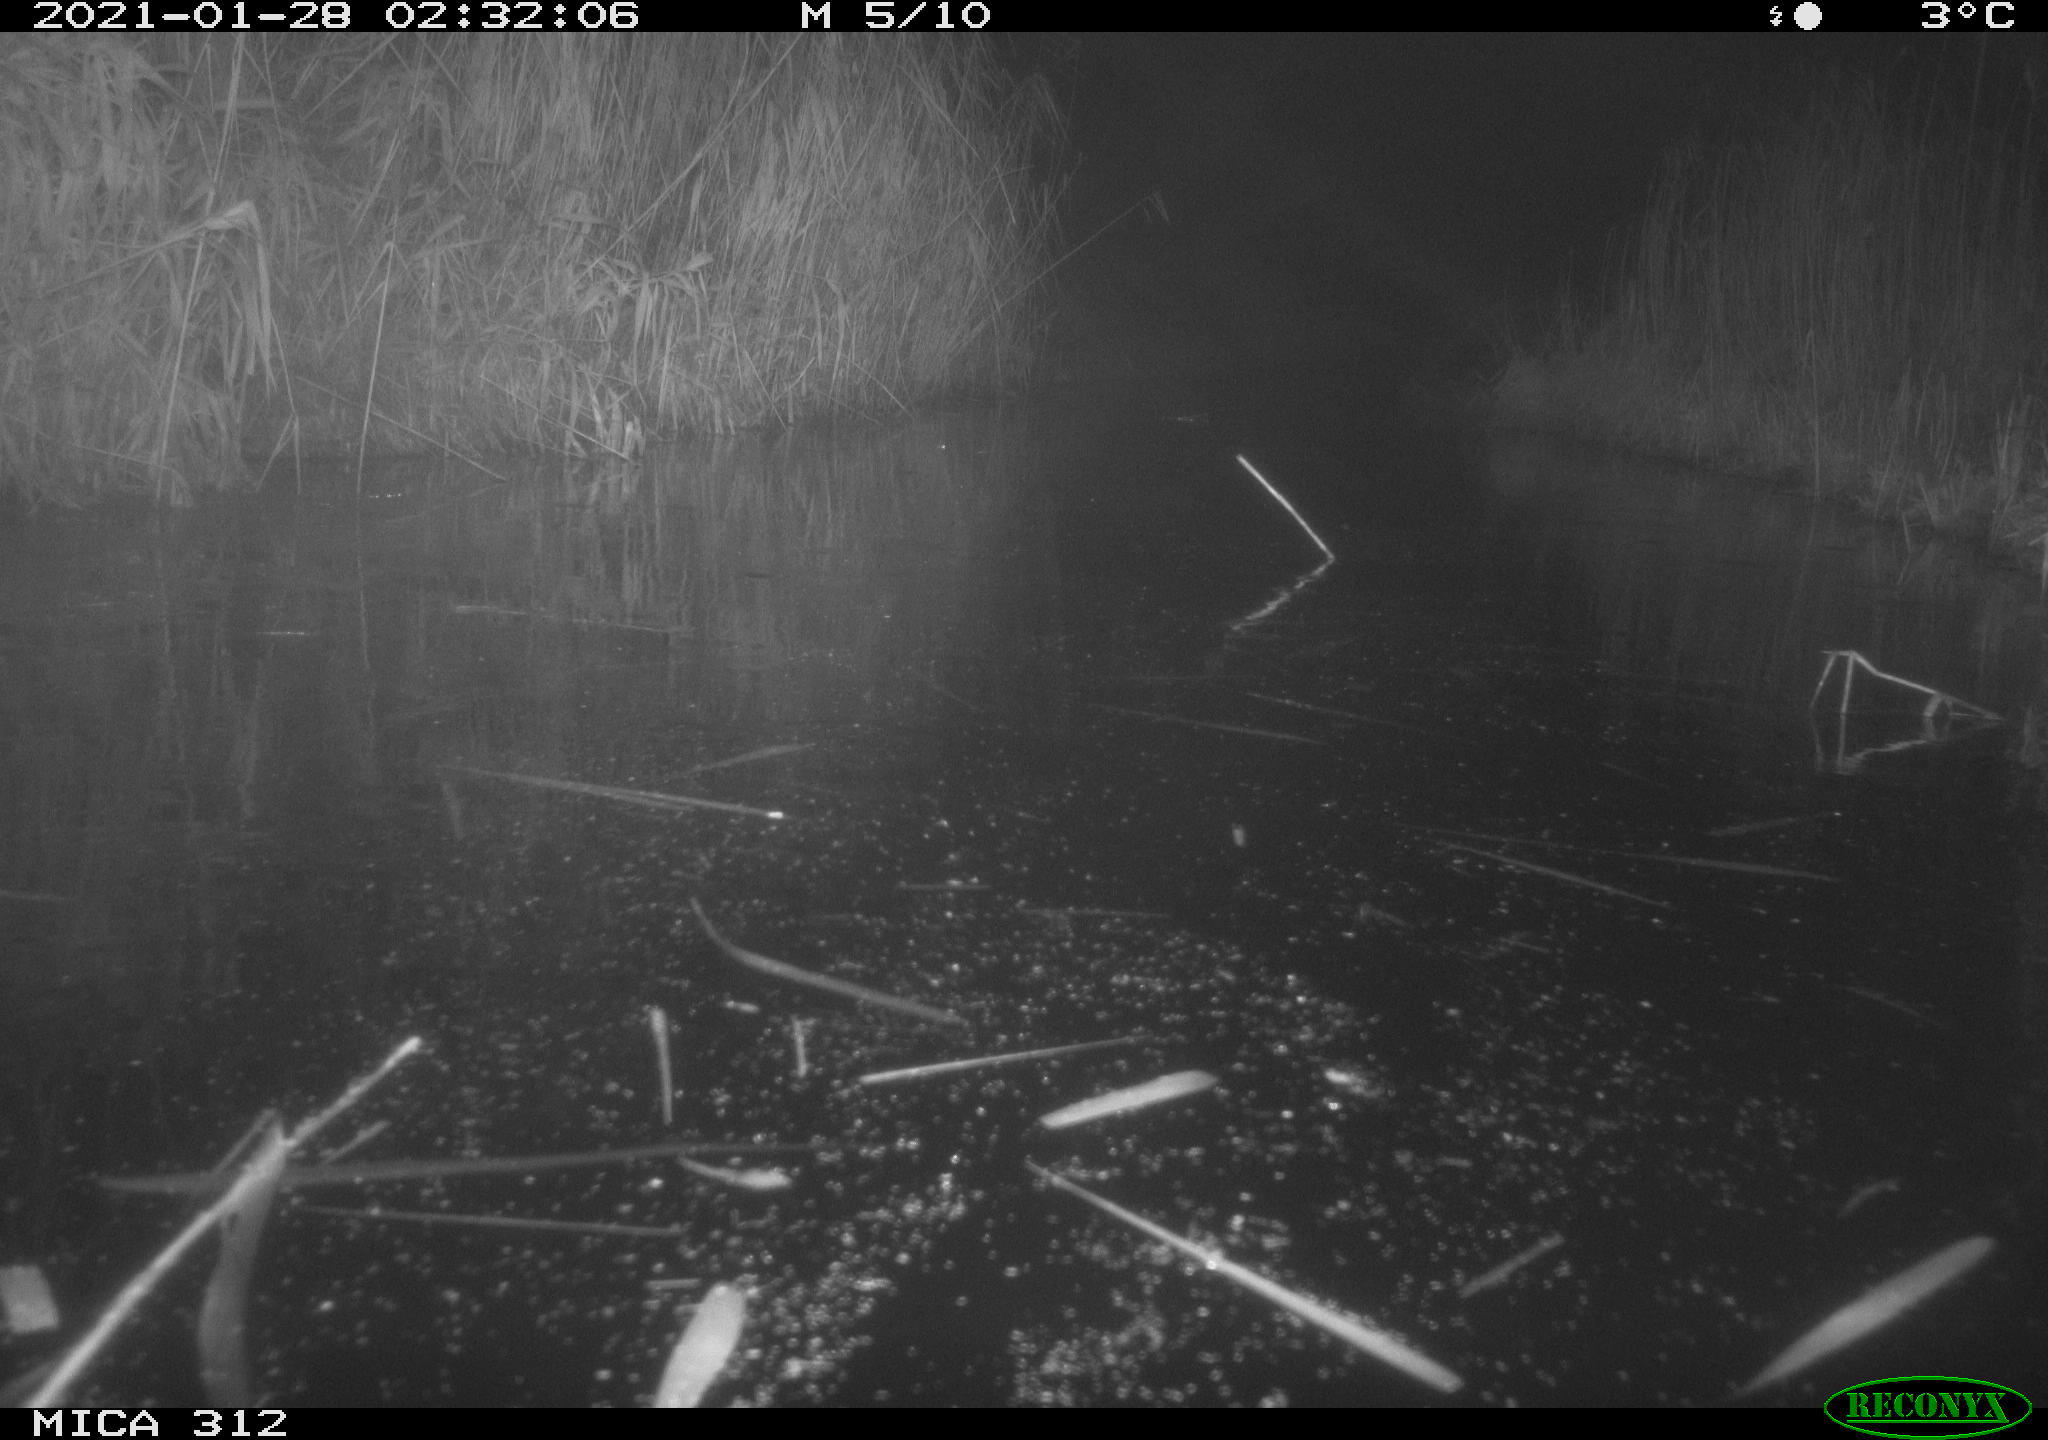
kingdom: Animalia
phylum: Chordata
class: Mammalia
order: Rodentia
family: Muridae
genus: Rattus
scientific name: Rattus norvegicus
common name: Brown rat
